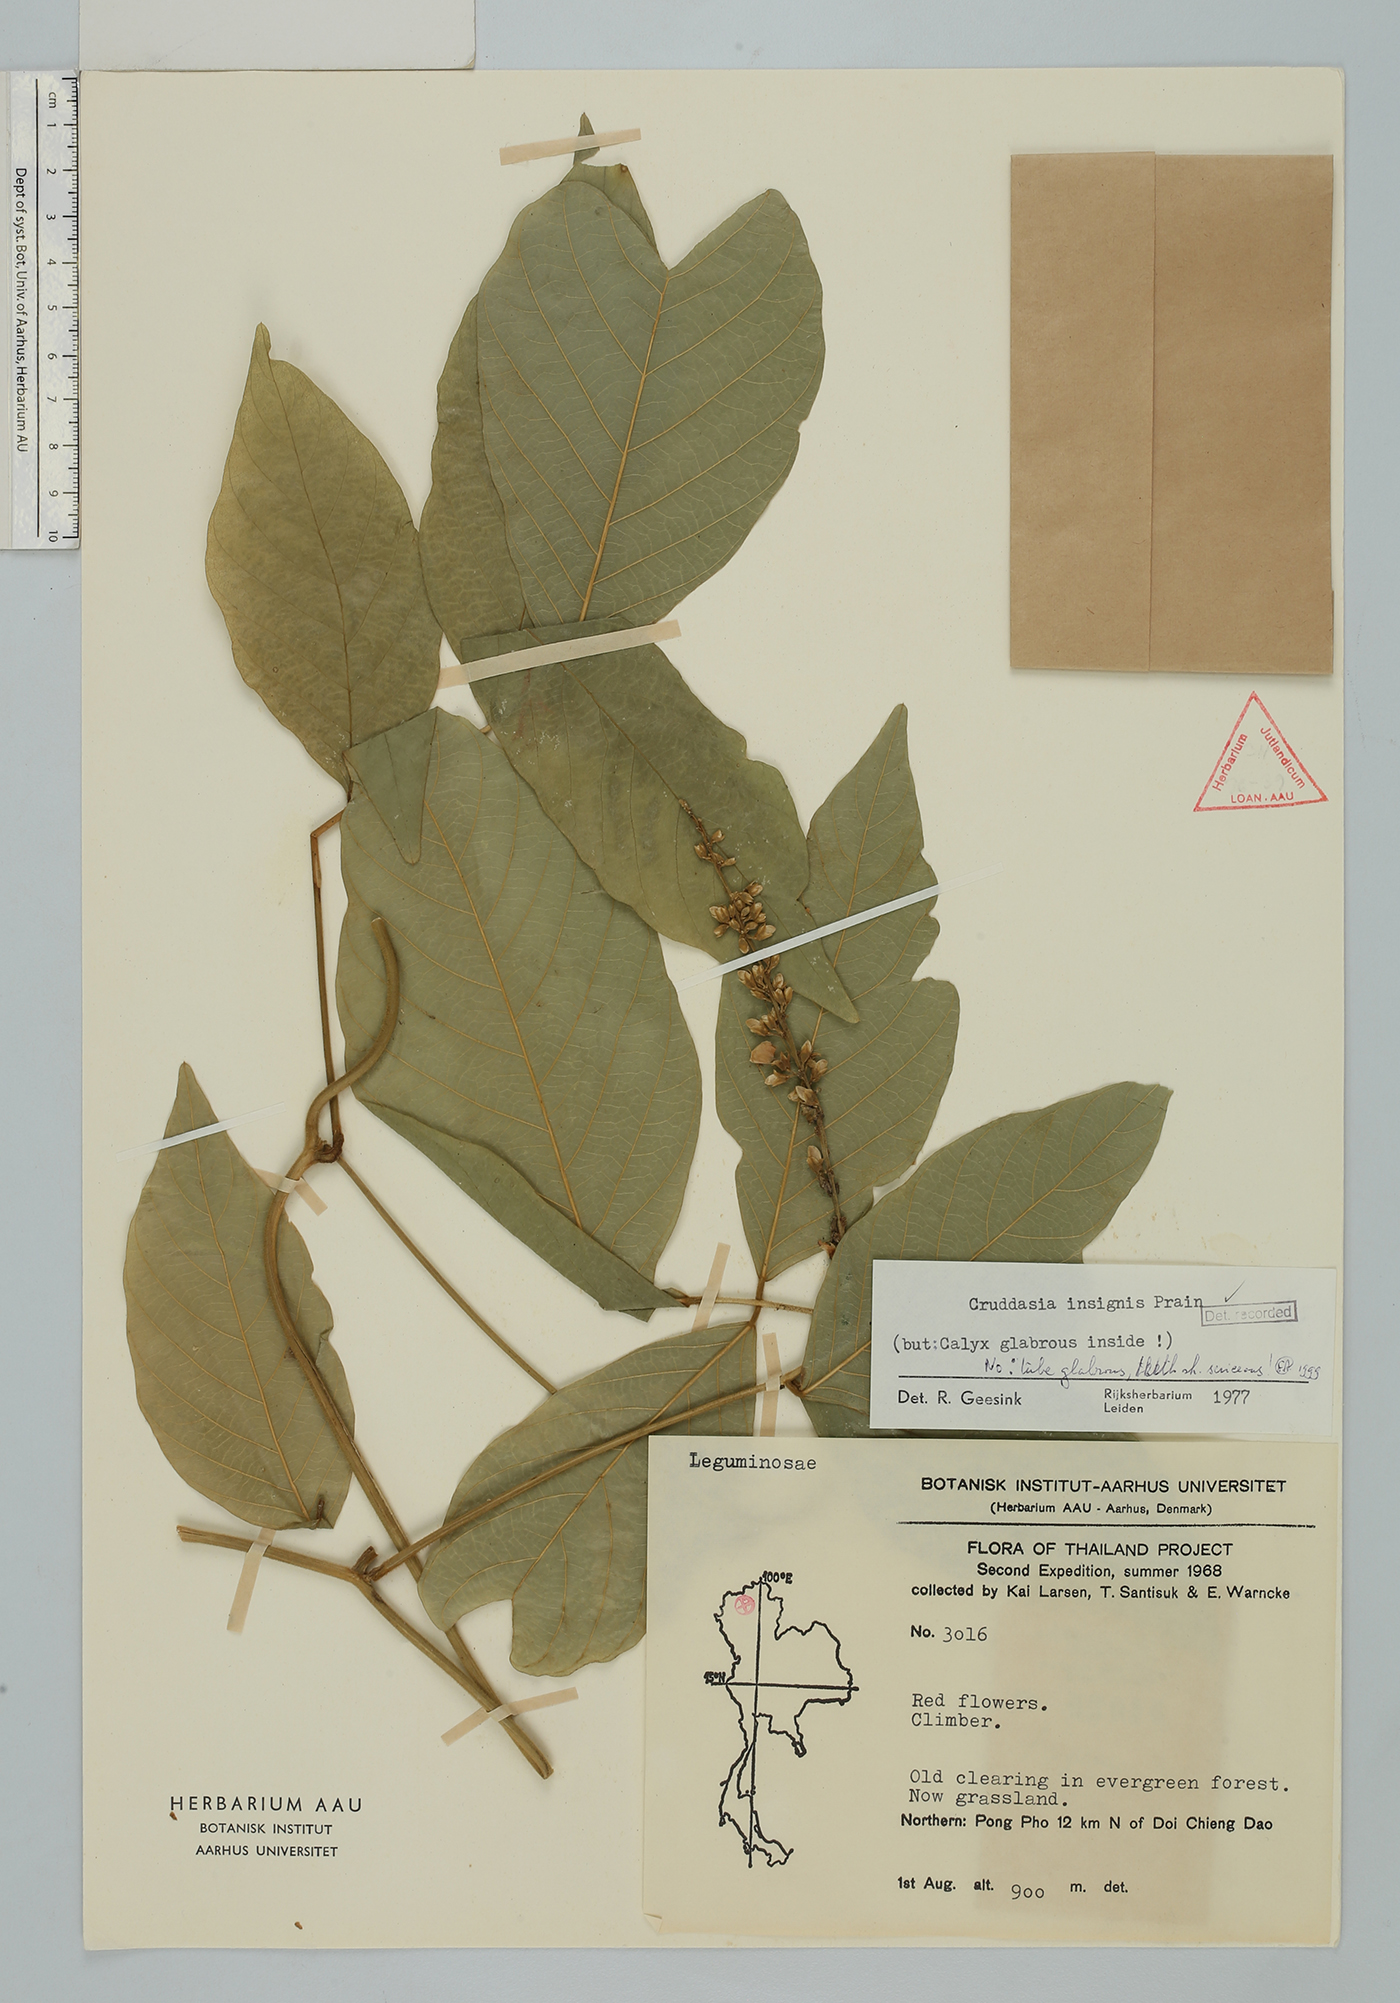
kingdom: Plantae
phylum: Tracheophyta
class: Magnoliopsida
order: Fabales
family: Fabaceae
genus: Cruddasia
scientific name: Cruddasia insignis
